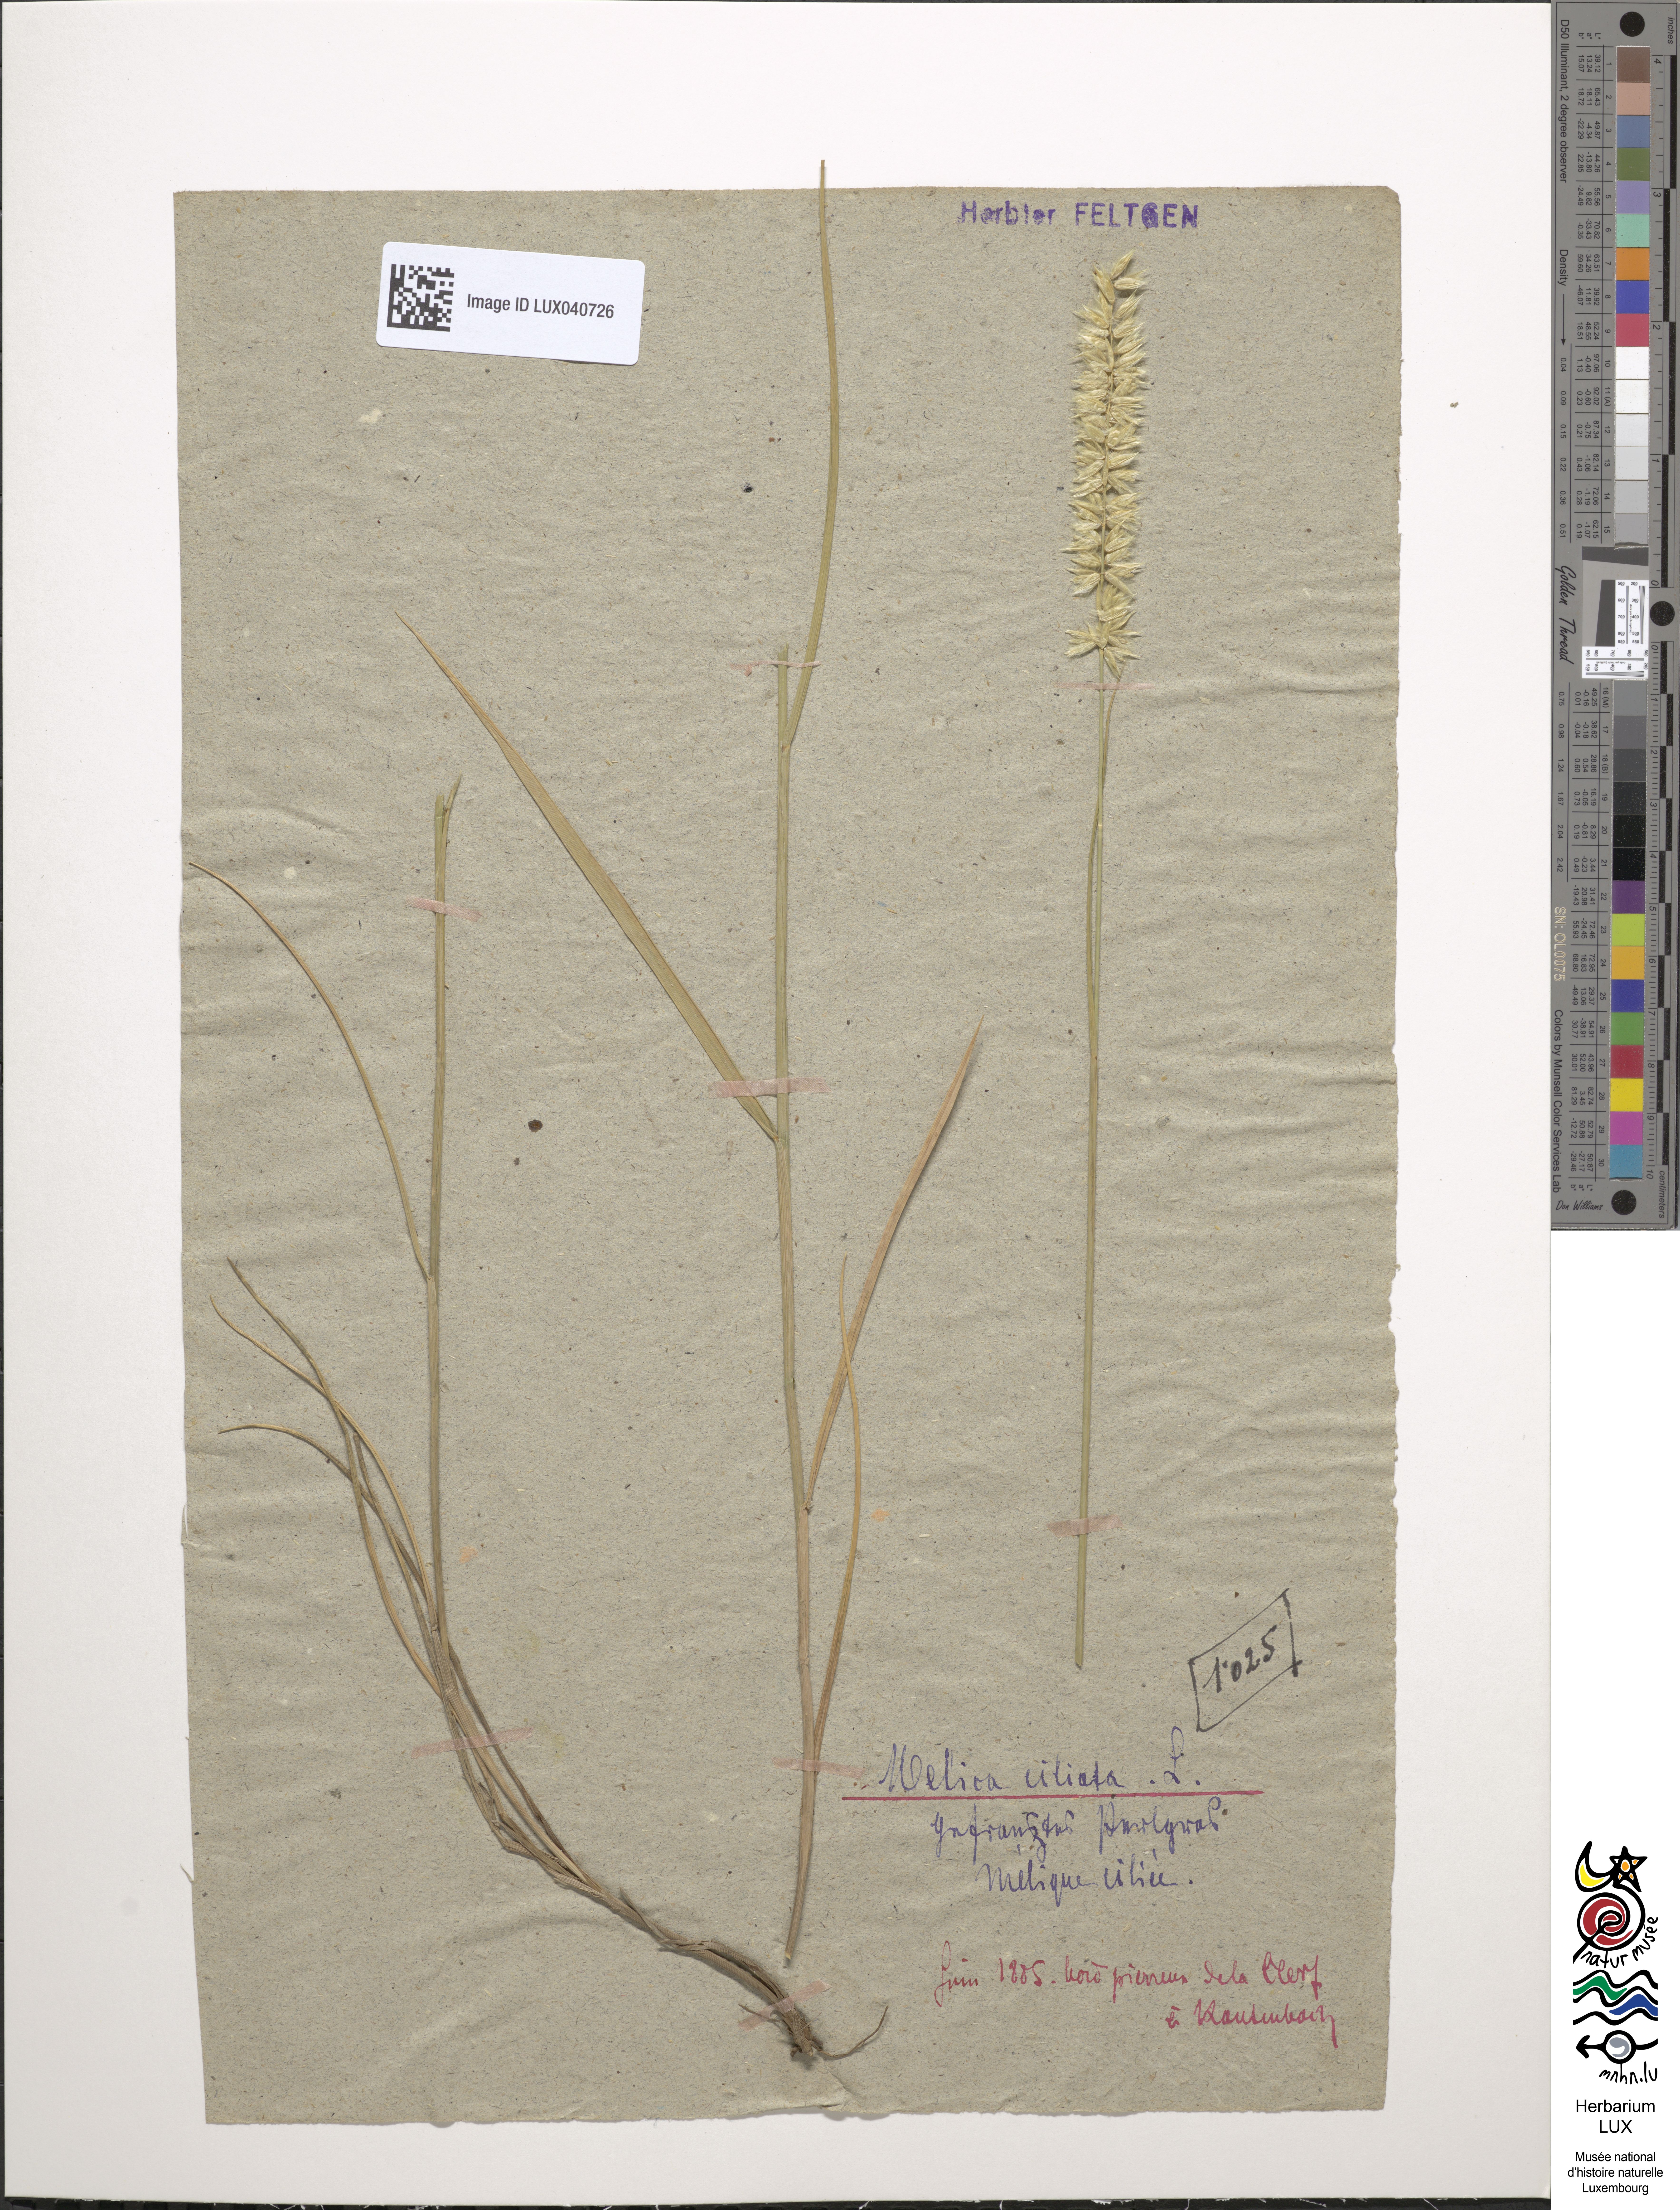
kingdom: Plantae
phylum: Tracheophyta
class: Liliopsida
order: Poales
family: Poaceae
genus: Melica
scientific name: Melica ciliata
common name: Hairy melicgrass
